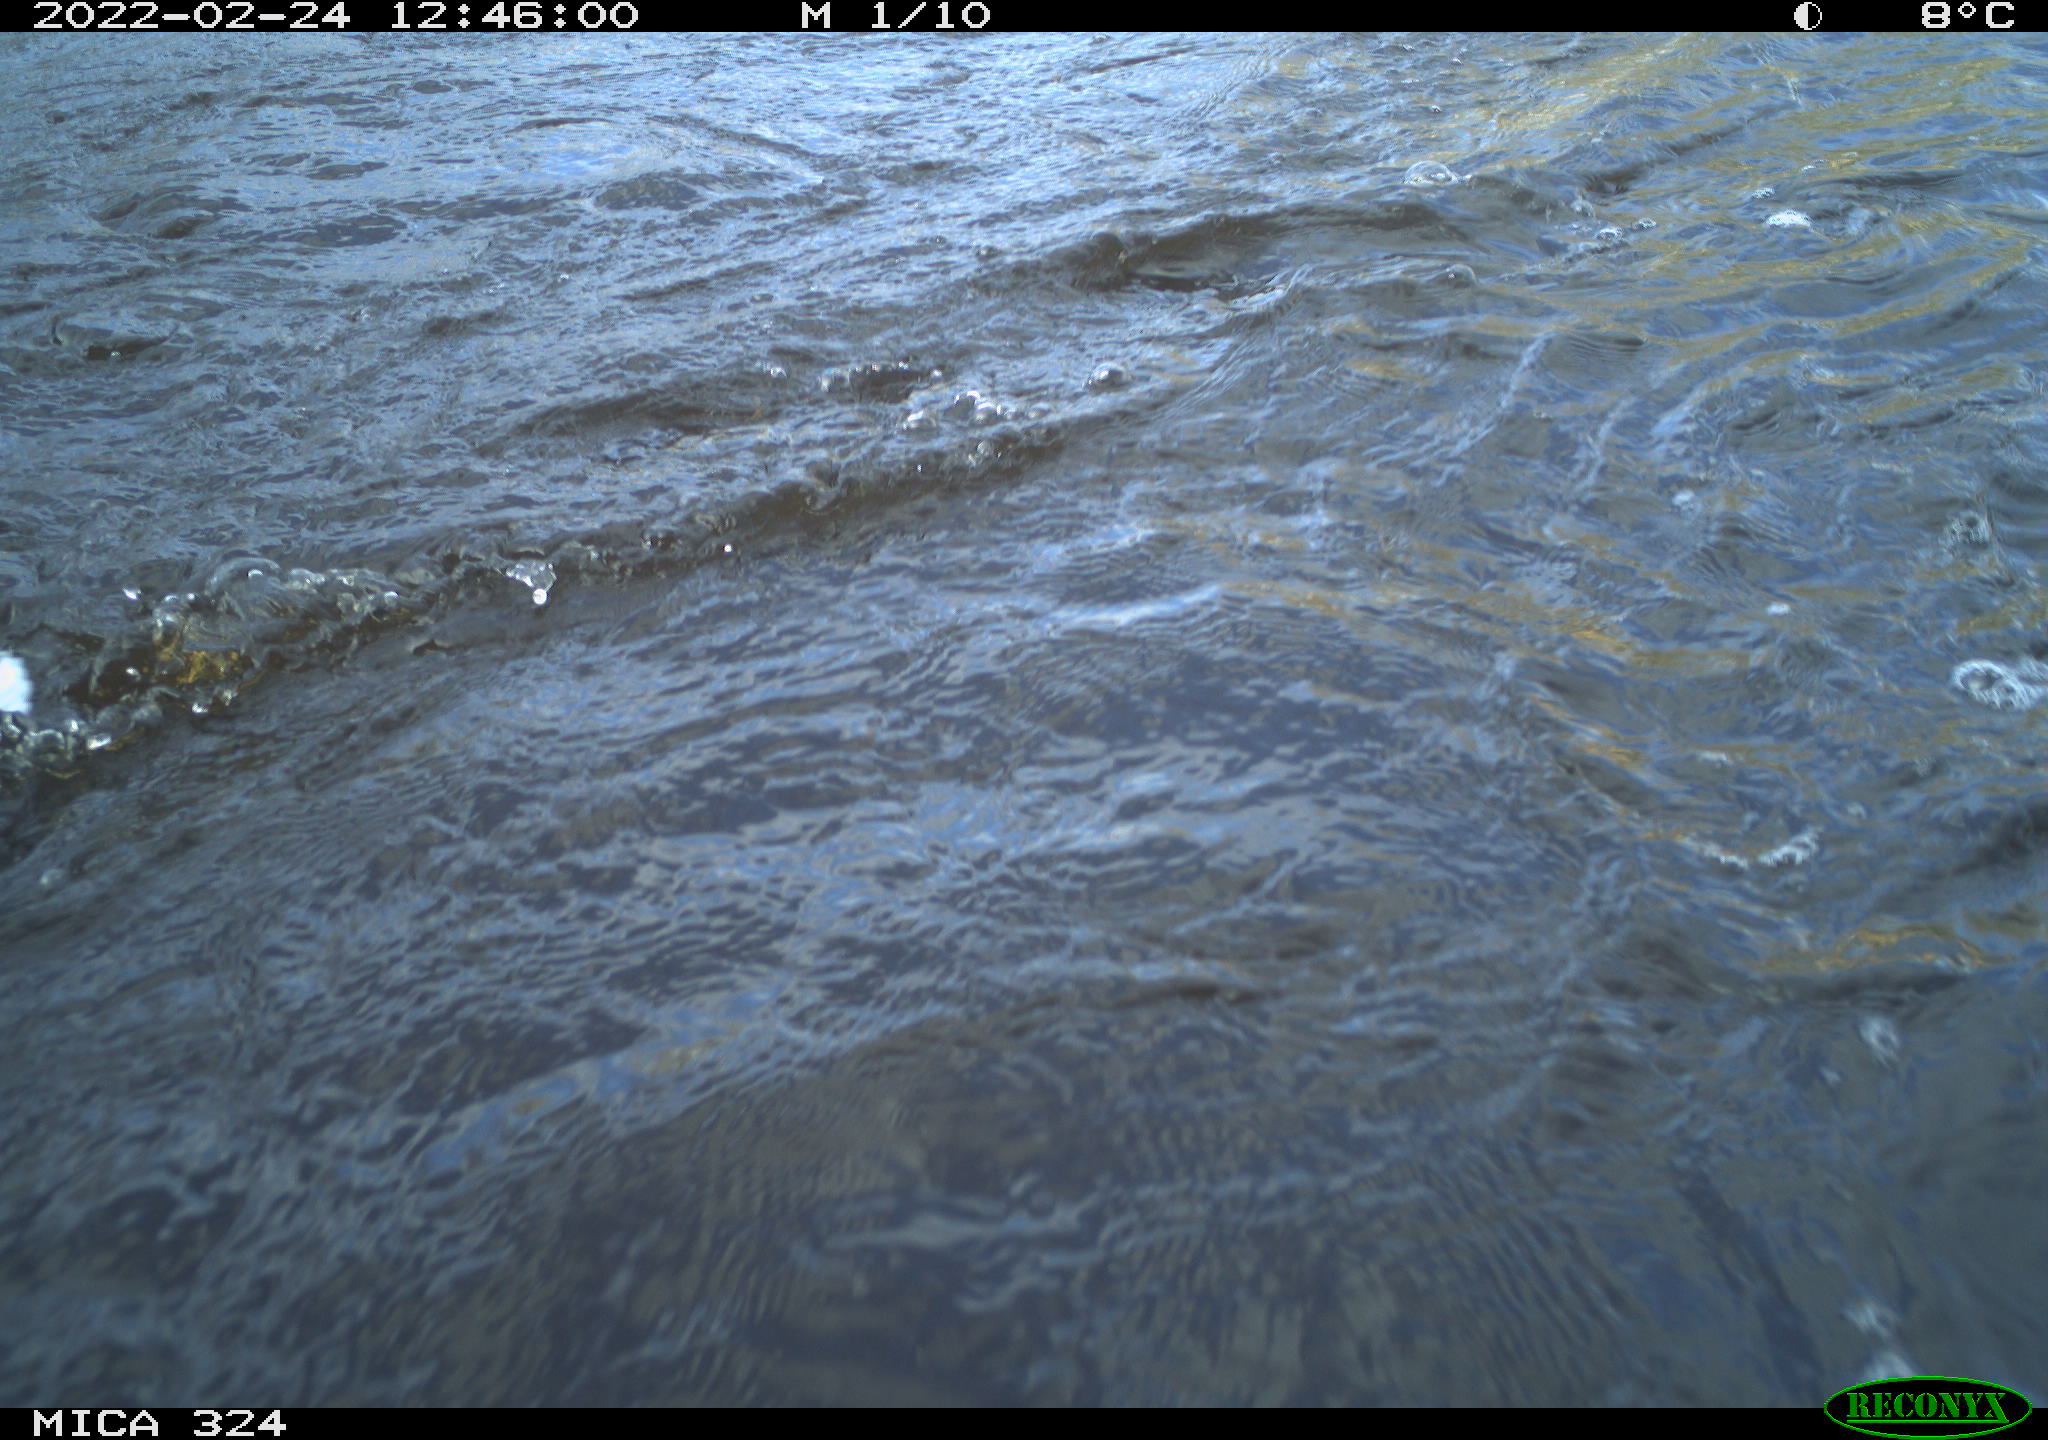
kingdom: Animalia
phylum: Chordata
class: Aves
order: Anseriformes
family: Anatidae
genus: Anas
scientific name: Anas platyrhynchos
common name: Mallard
